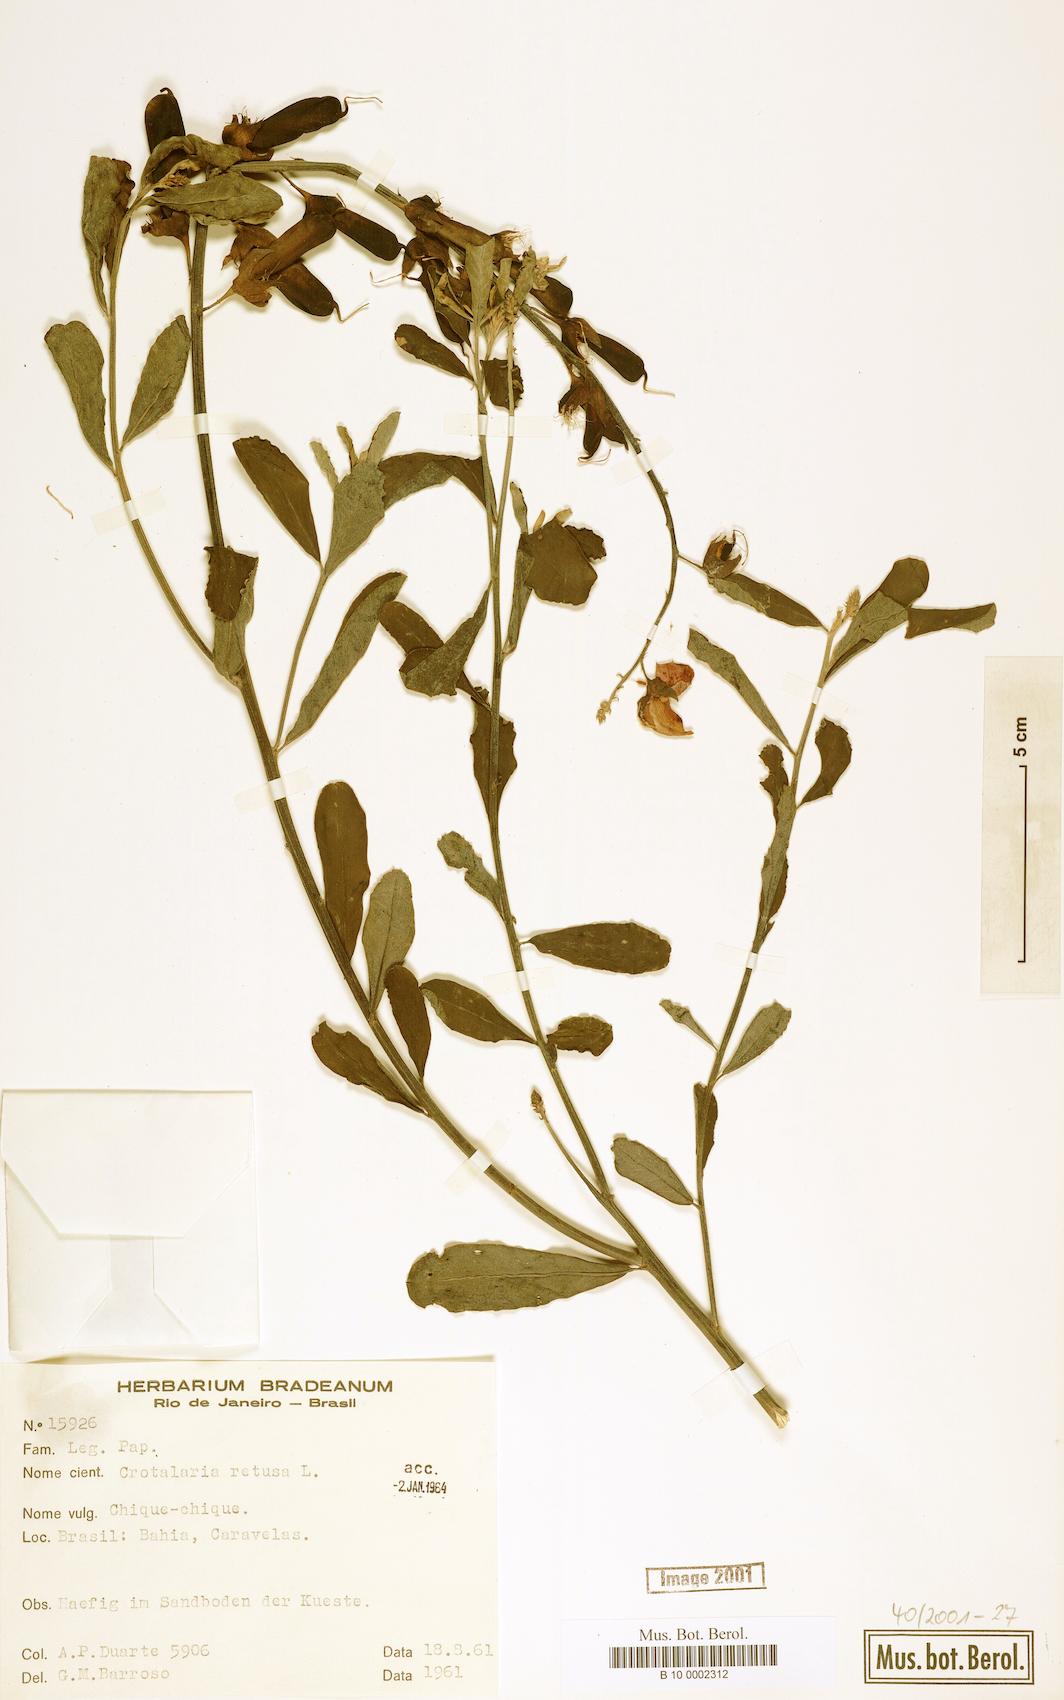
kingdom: Plantae
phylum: Tracheophyta
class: Magnoliopsida
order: Fabales
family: Fabaceae
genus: Crotalaria
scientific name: Crotalaria retusa
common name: Rattleweed
